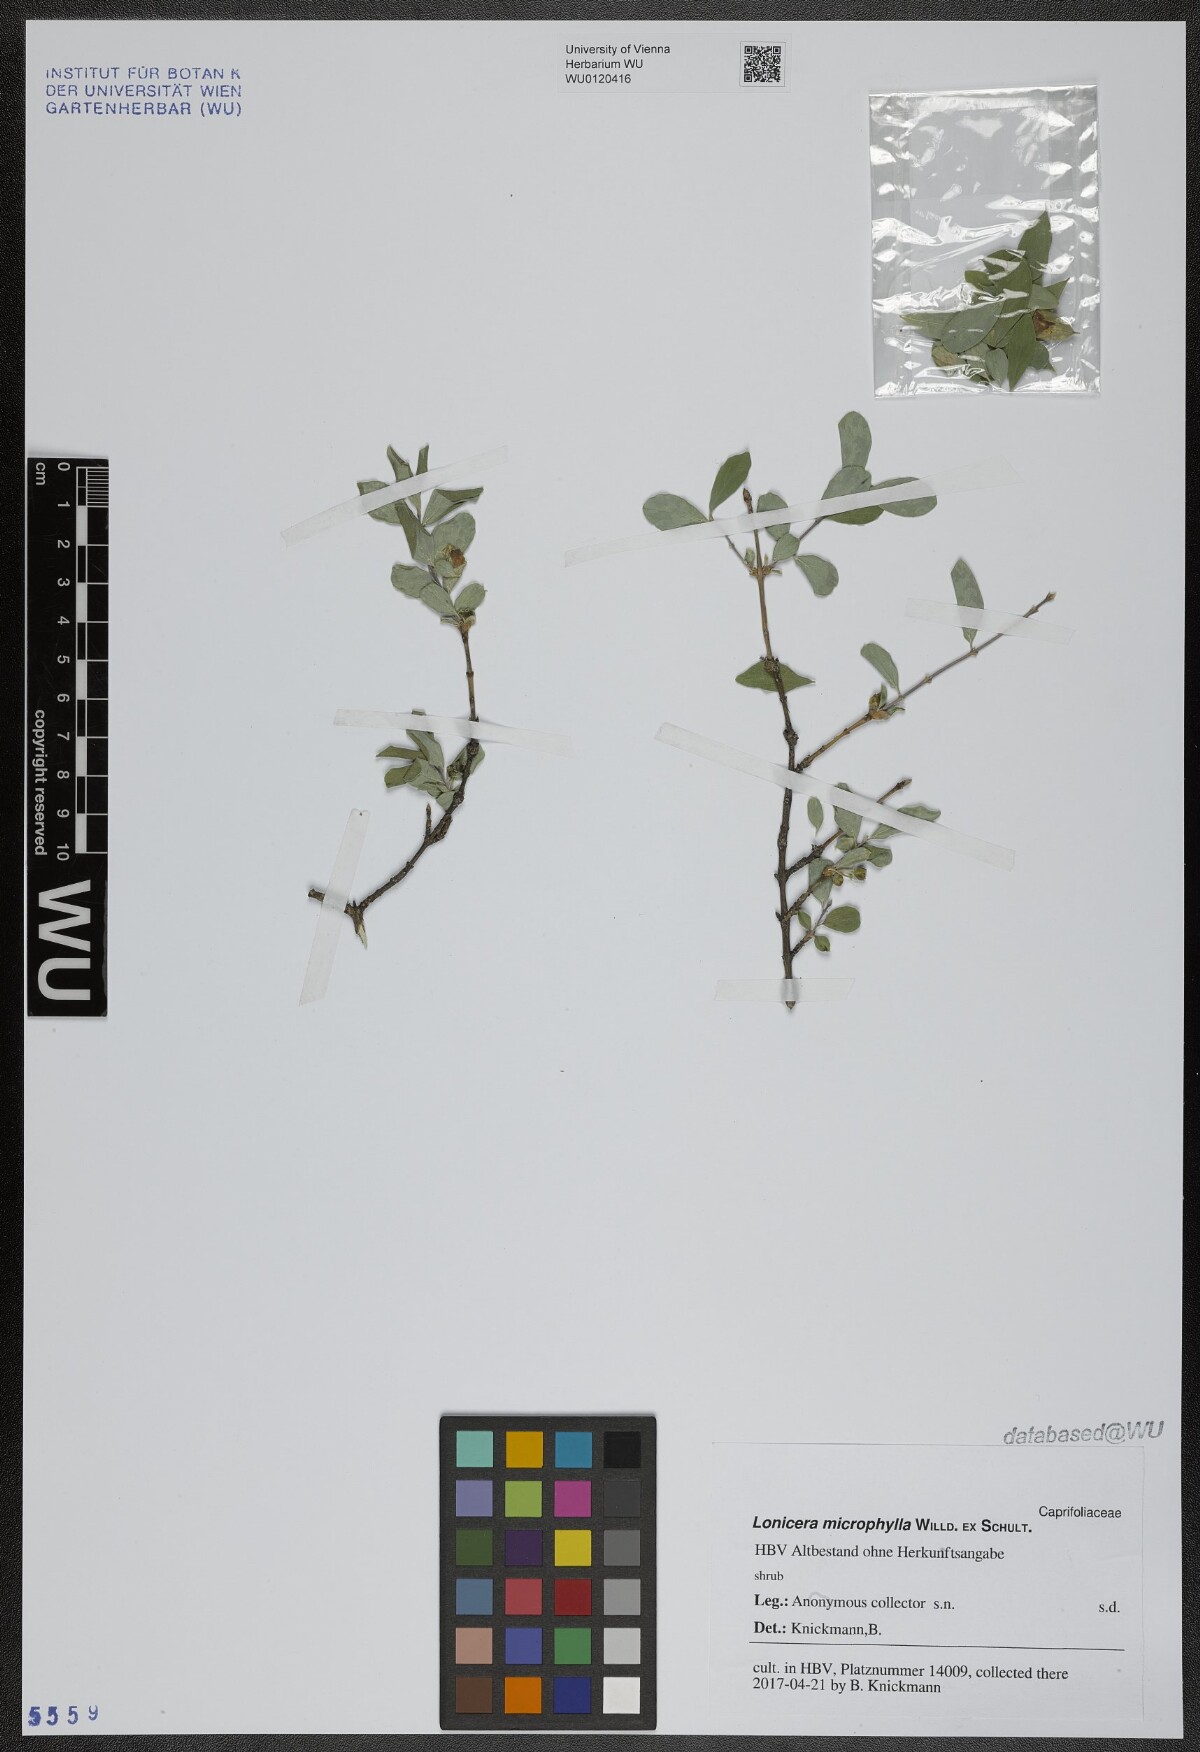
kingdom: Plantae
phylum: Tracheophyta
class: Magnoliopsida
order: Dipsacales
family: Caprifoliaceae
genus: Lonicera
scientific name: Lonicera microphylla
